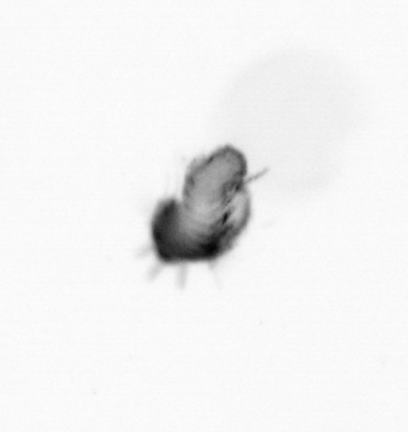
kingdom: Animalia
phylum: Annelida
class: Polychaeta
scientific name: Polychaeta
